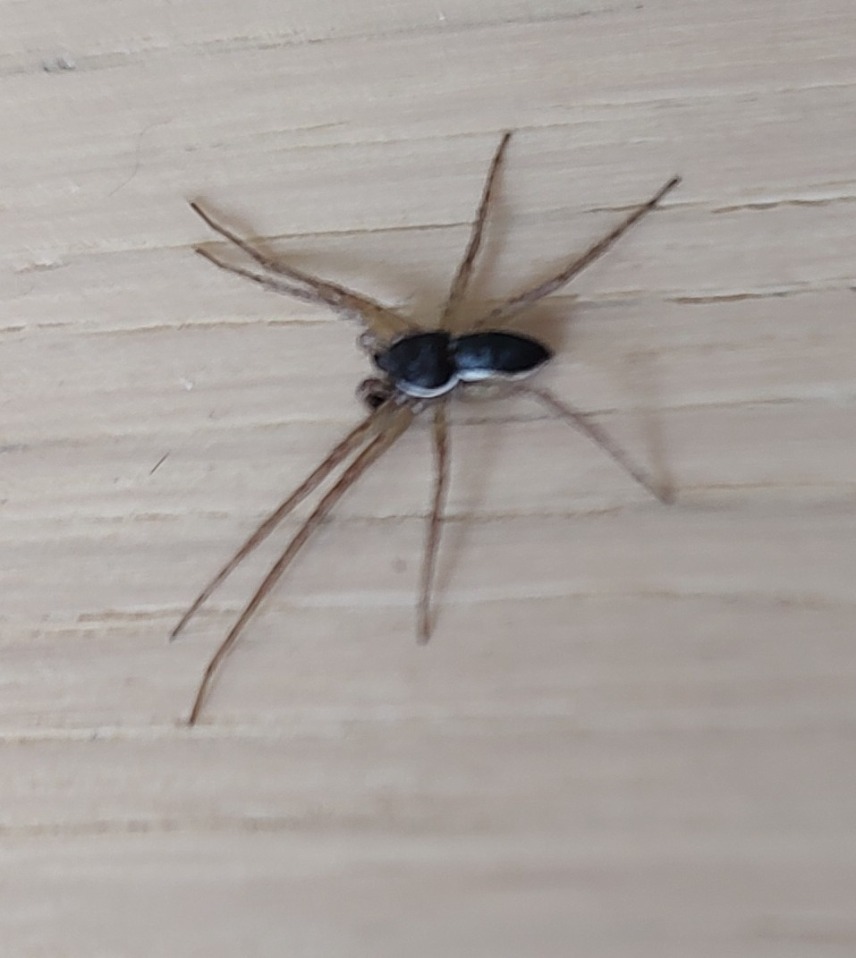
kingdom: Animalia
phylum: Arthropoda
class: Arachnida
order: Araneae
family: Philodromidae
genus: Philodromus
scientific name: Philodromus dispar
